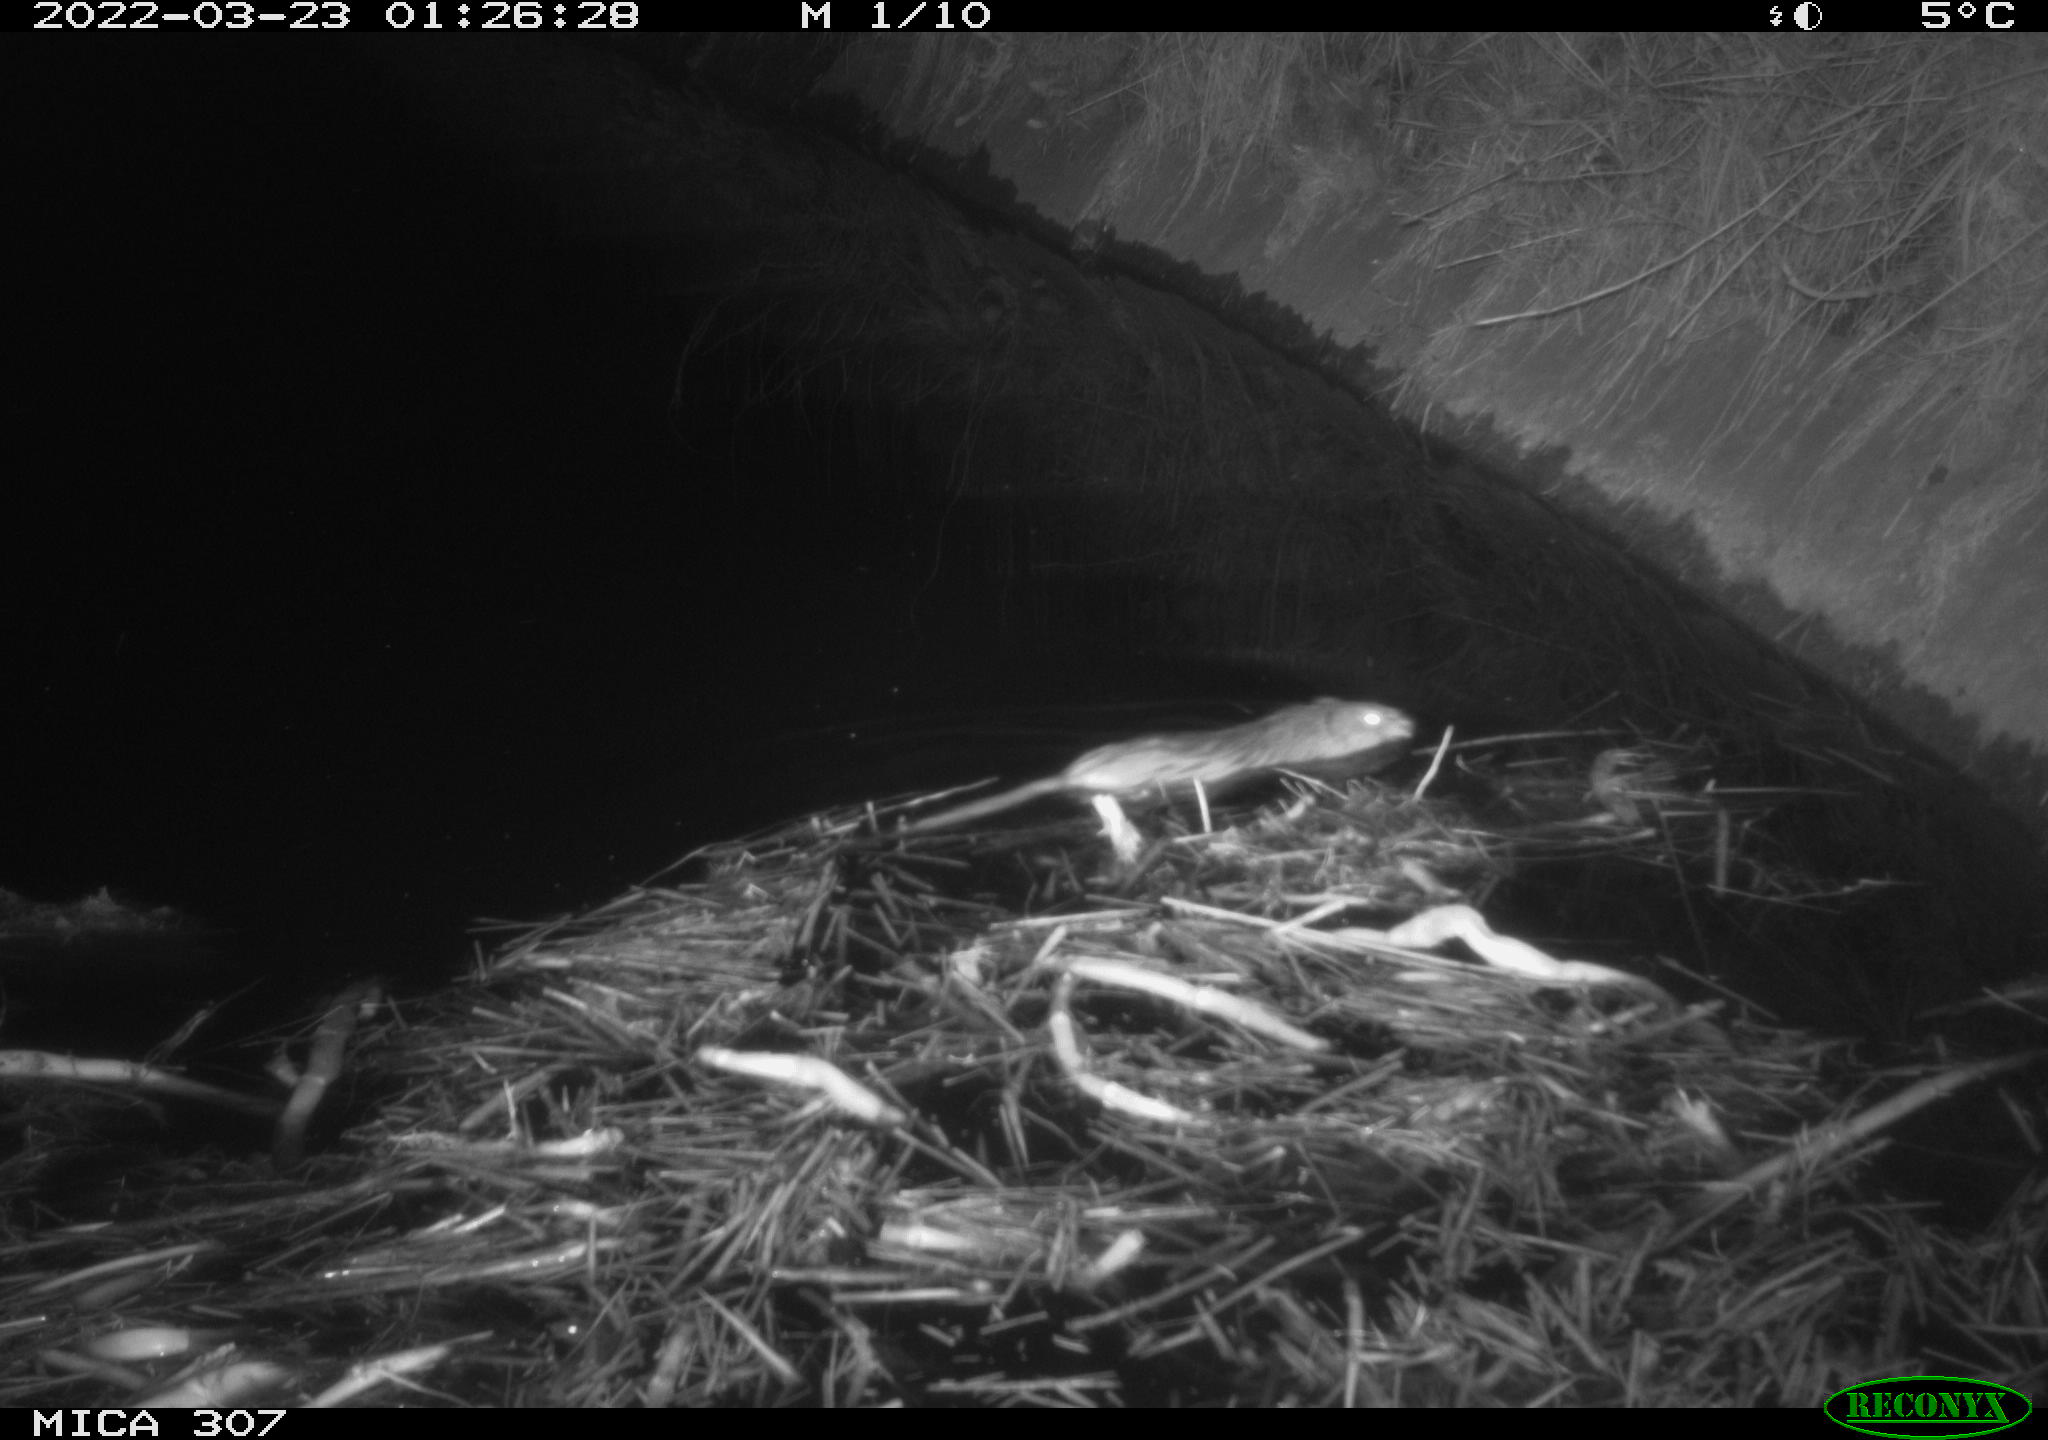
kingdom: Animalia
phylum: Chordata
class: Mammalia
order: Rodentia
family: Cricetidae
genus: Ondatra
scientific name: Ondatra zibethicus
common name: Muskrat
